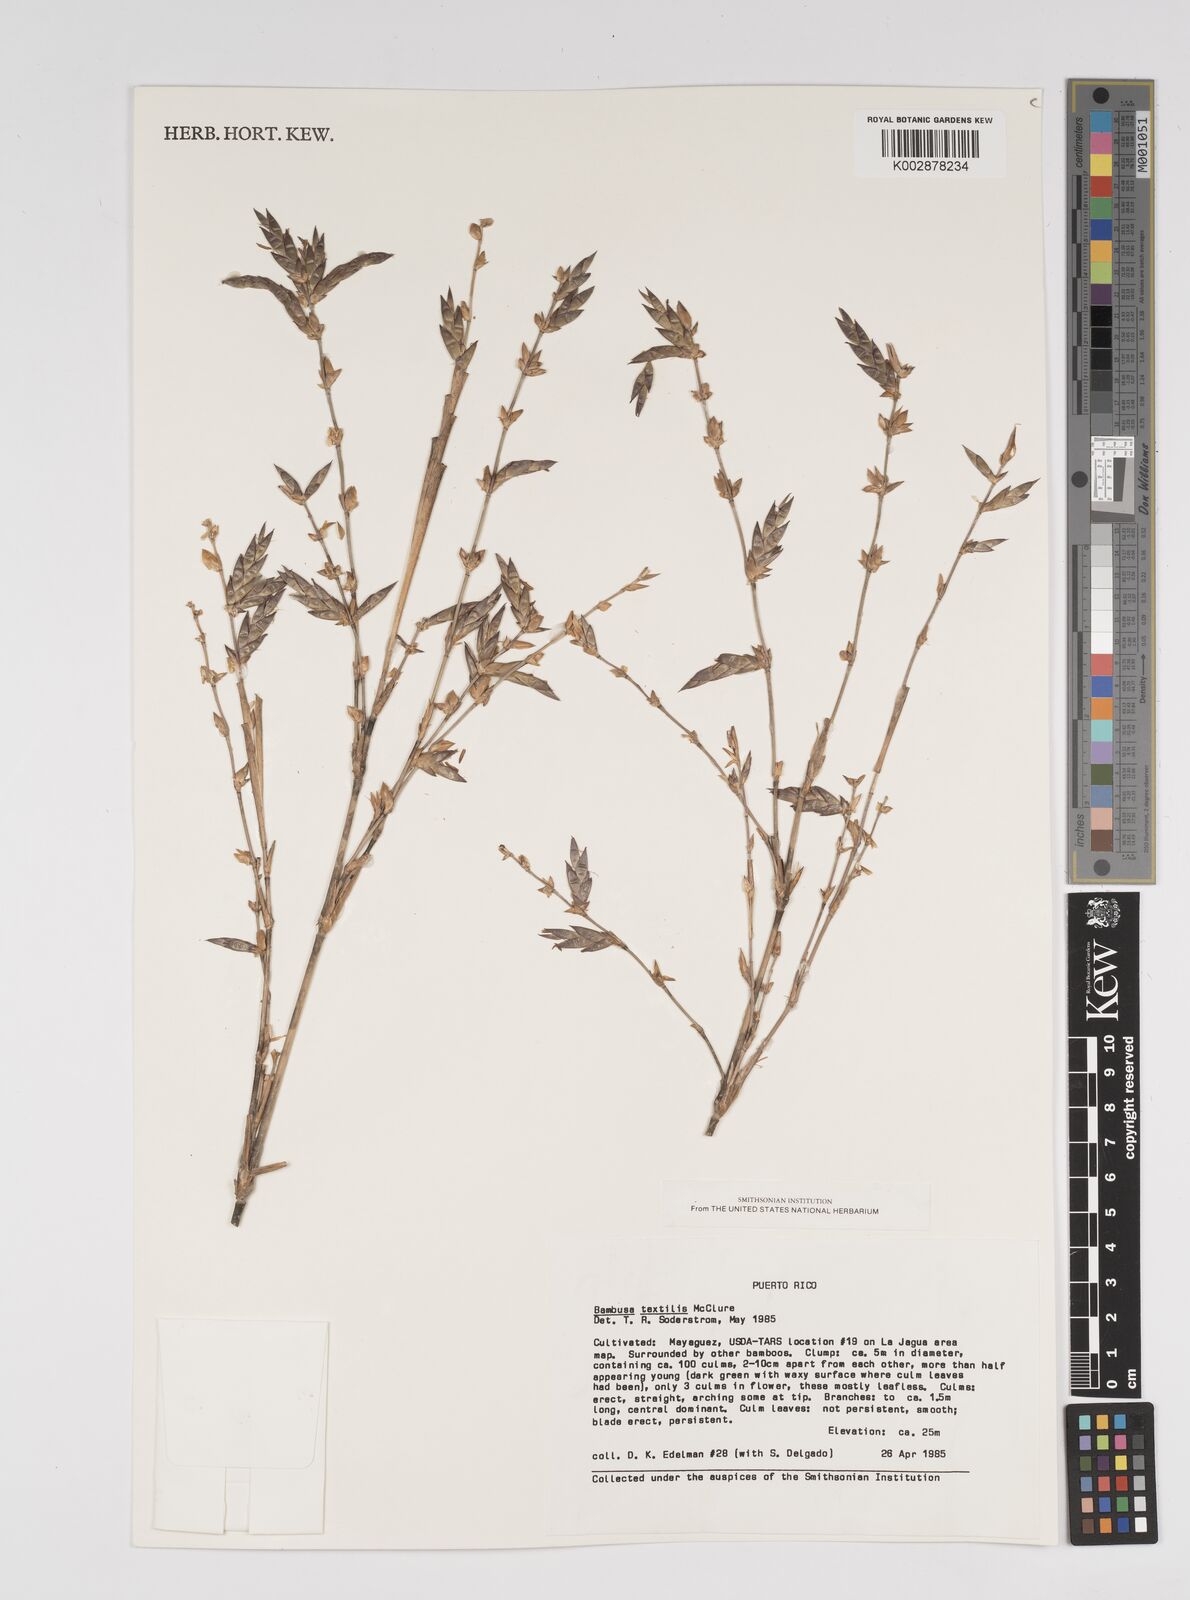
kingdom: Plantae
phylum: Tracheophyta
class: Liliopsida
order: Poales
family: Poaceae
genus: Bambusa
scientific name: Bambusa textilis
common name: Weaver's bamboo
